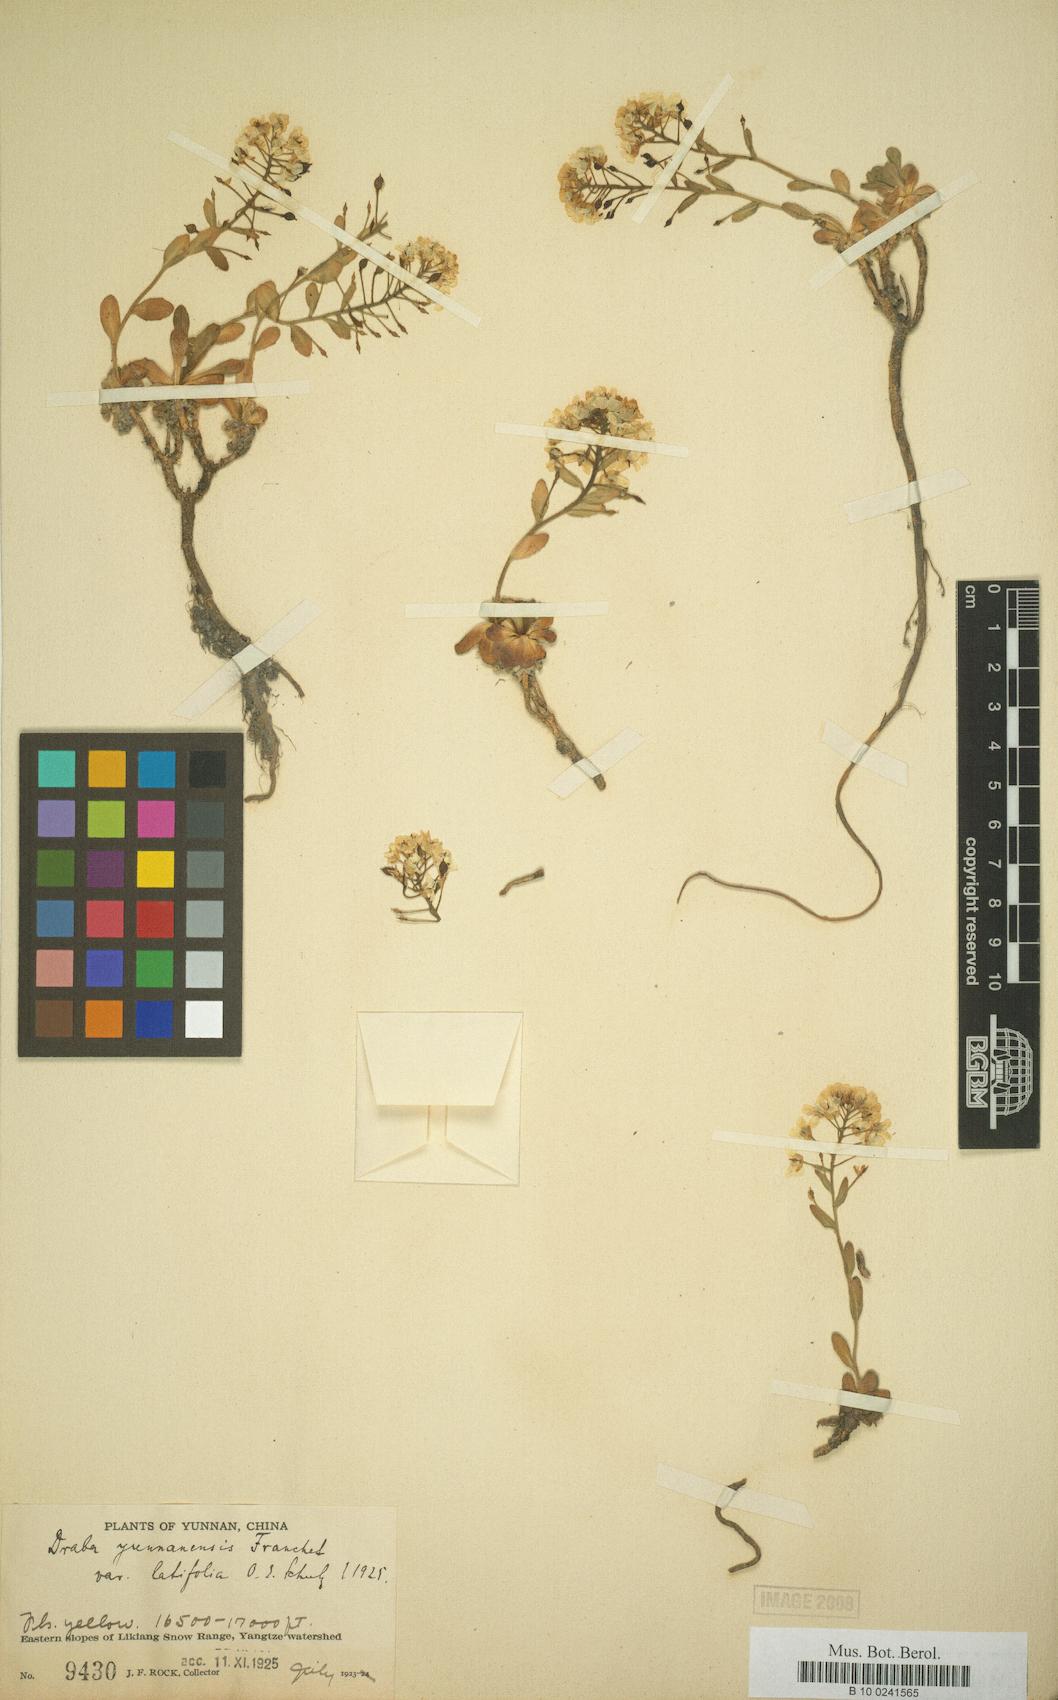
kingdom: Plantae
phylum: Tracheophyta
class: Magnoliopsida
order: Brassicales
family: Brassicaceae
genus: Draba
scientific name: Draba yunnanensis
